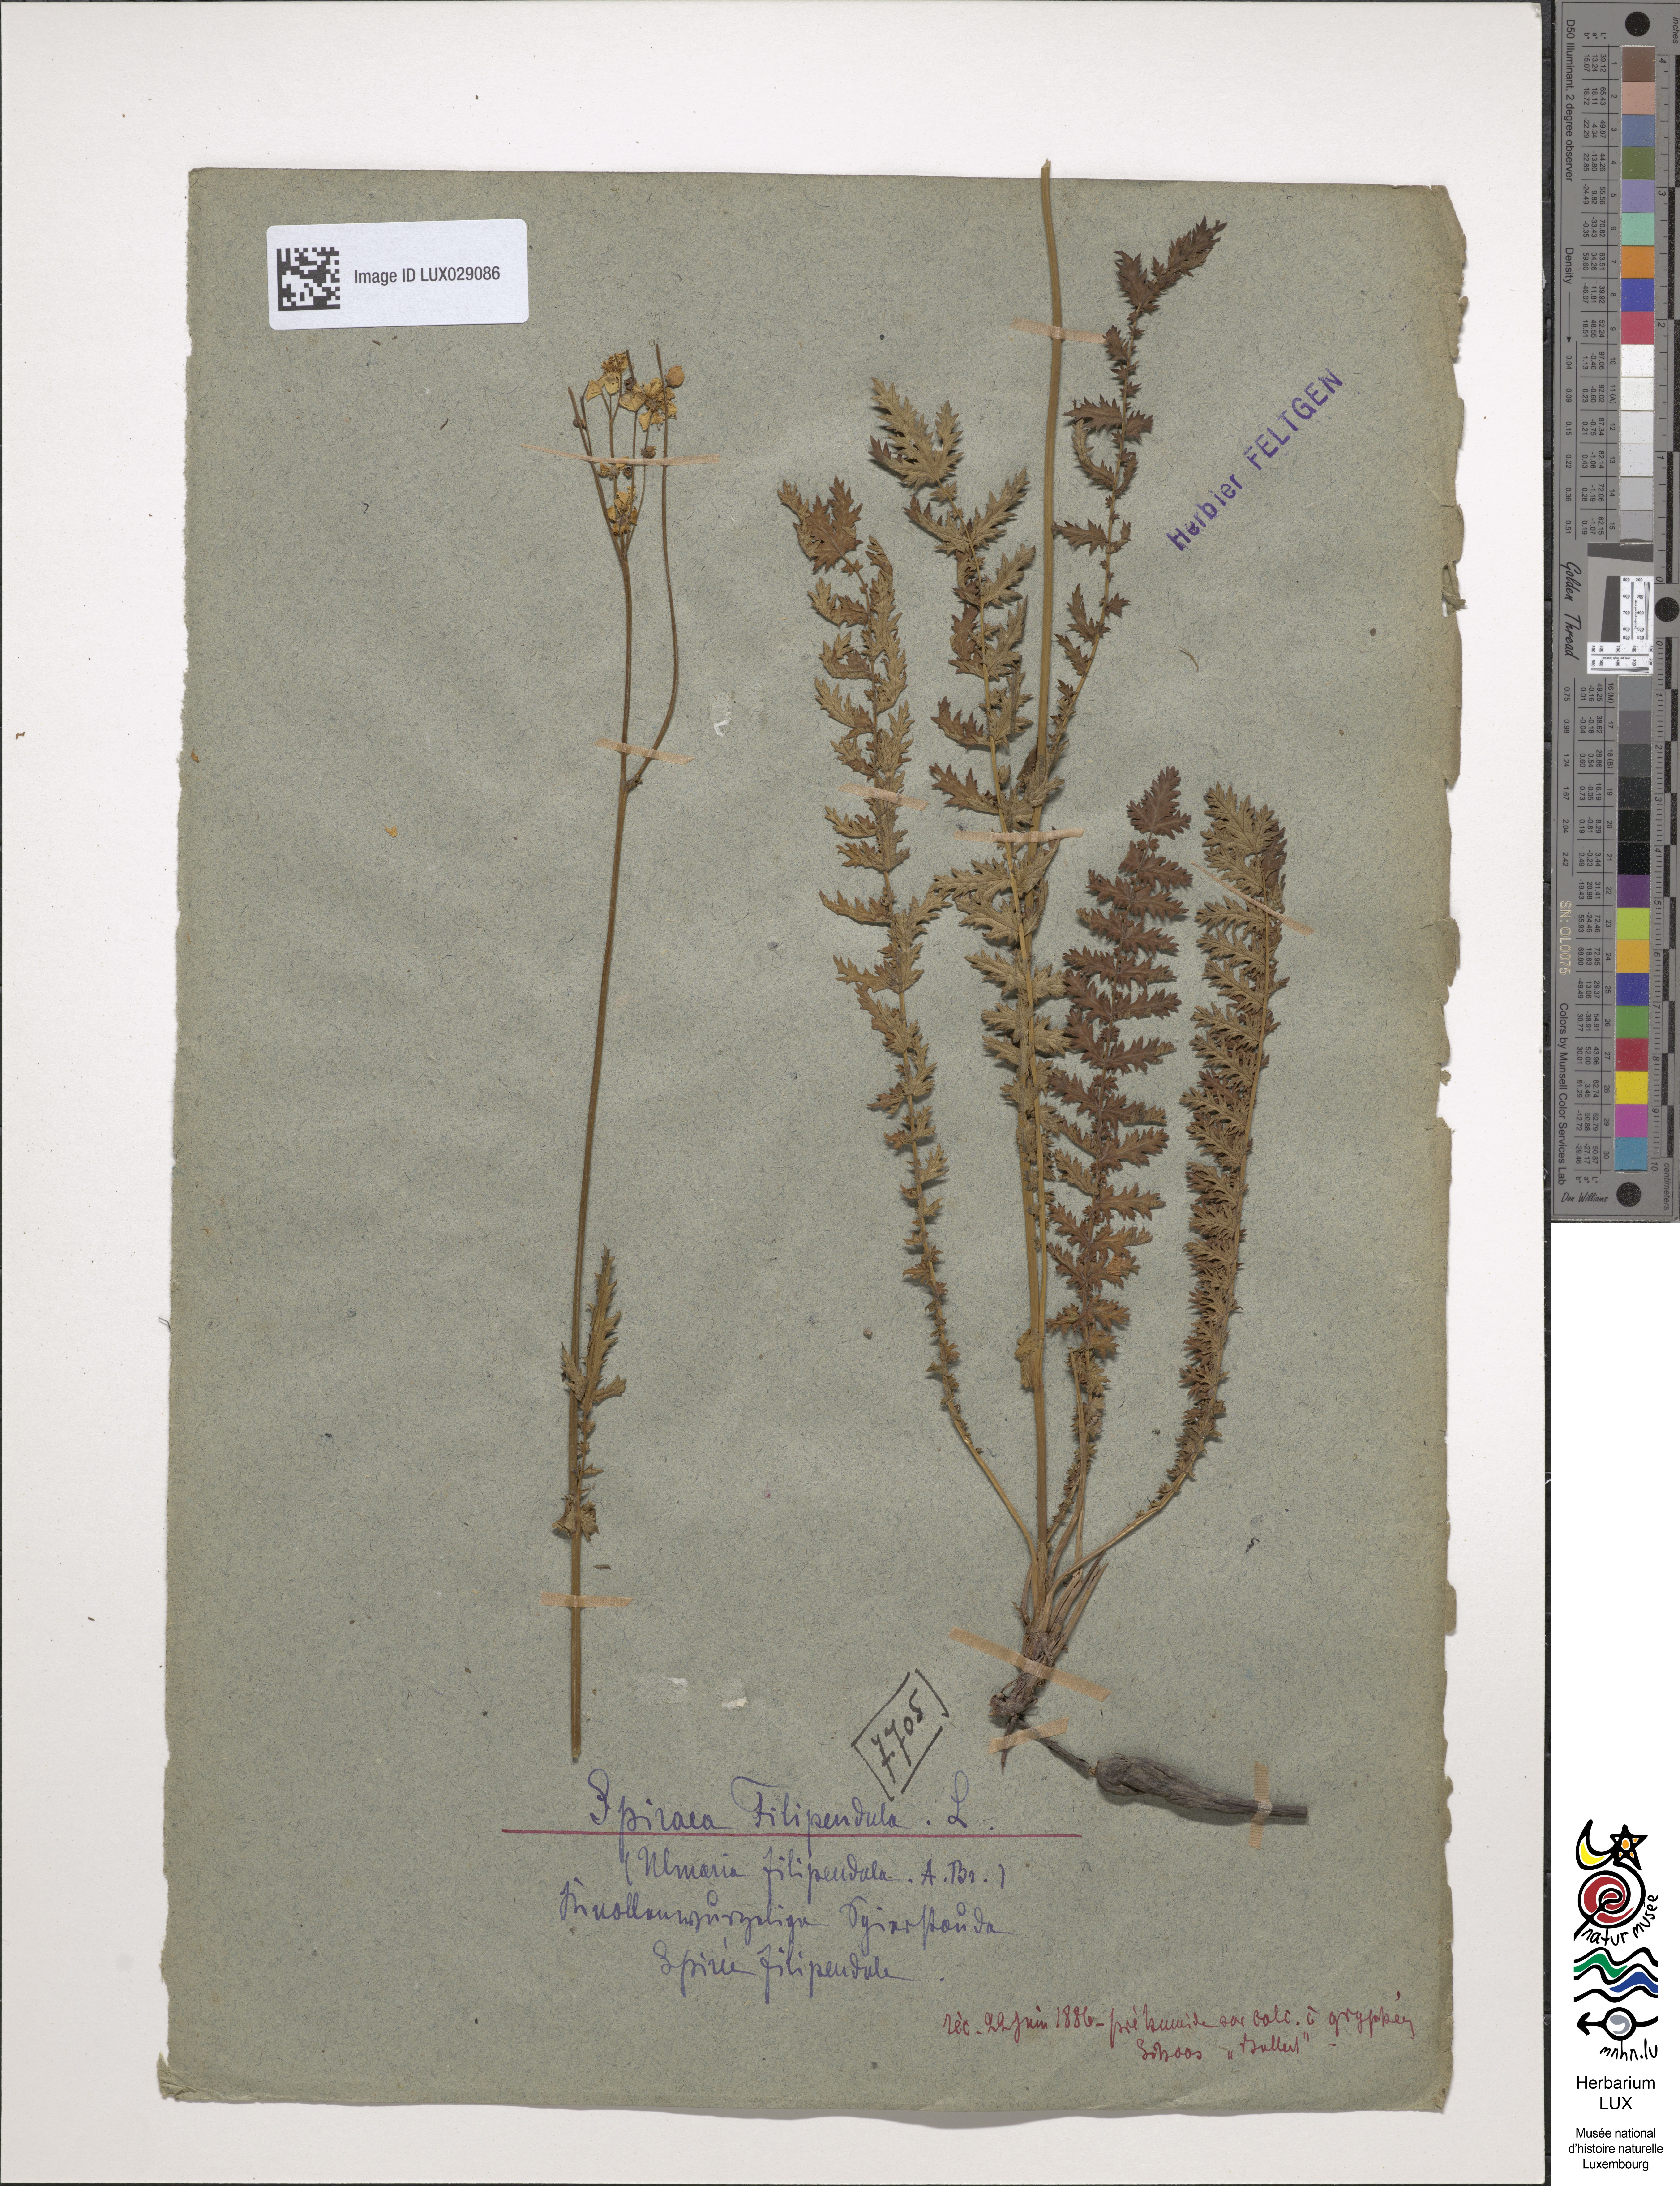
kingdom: Plantae
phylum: Tracheophyta
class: Magnoliopsida
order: Rosales
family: Rosaceae
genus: Filipendula
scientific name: Filipendula vulgaris
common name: Dropwort
